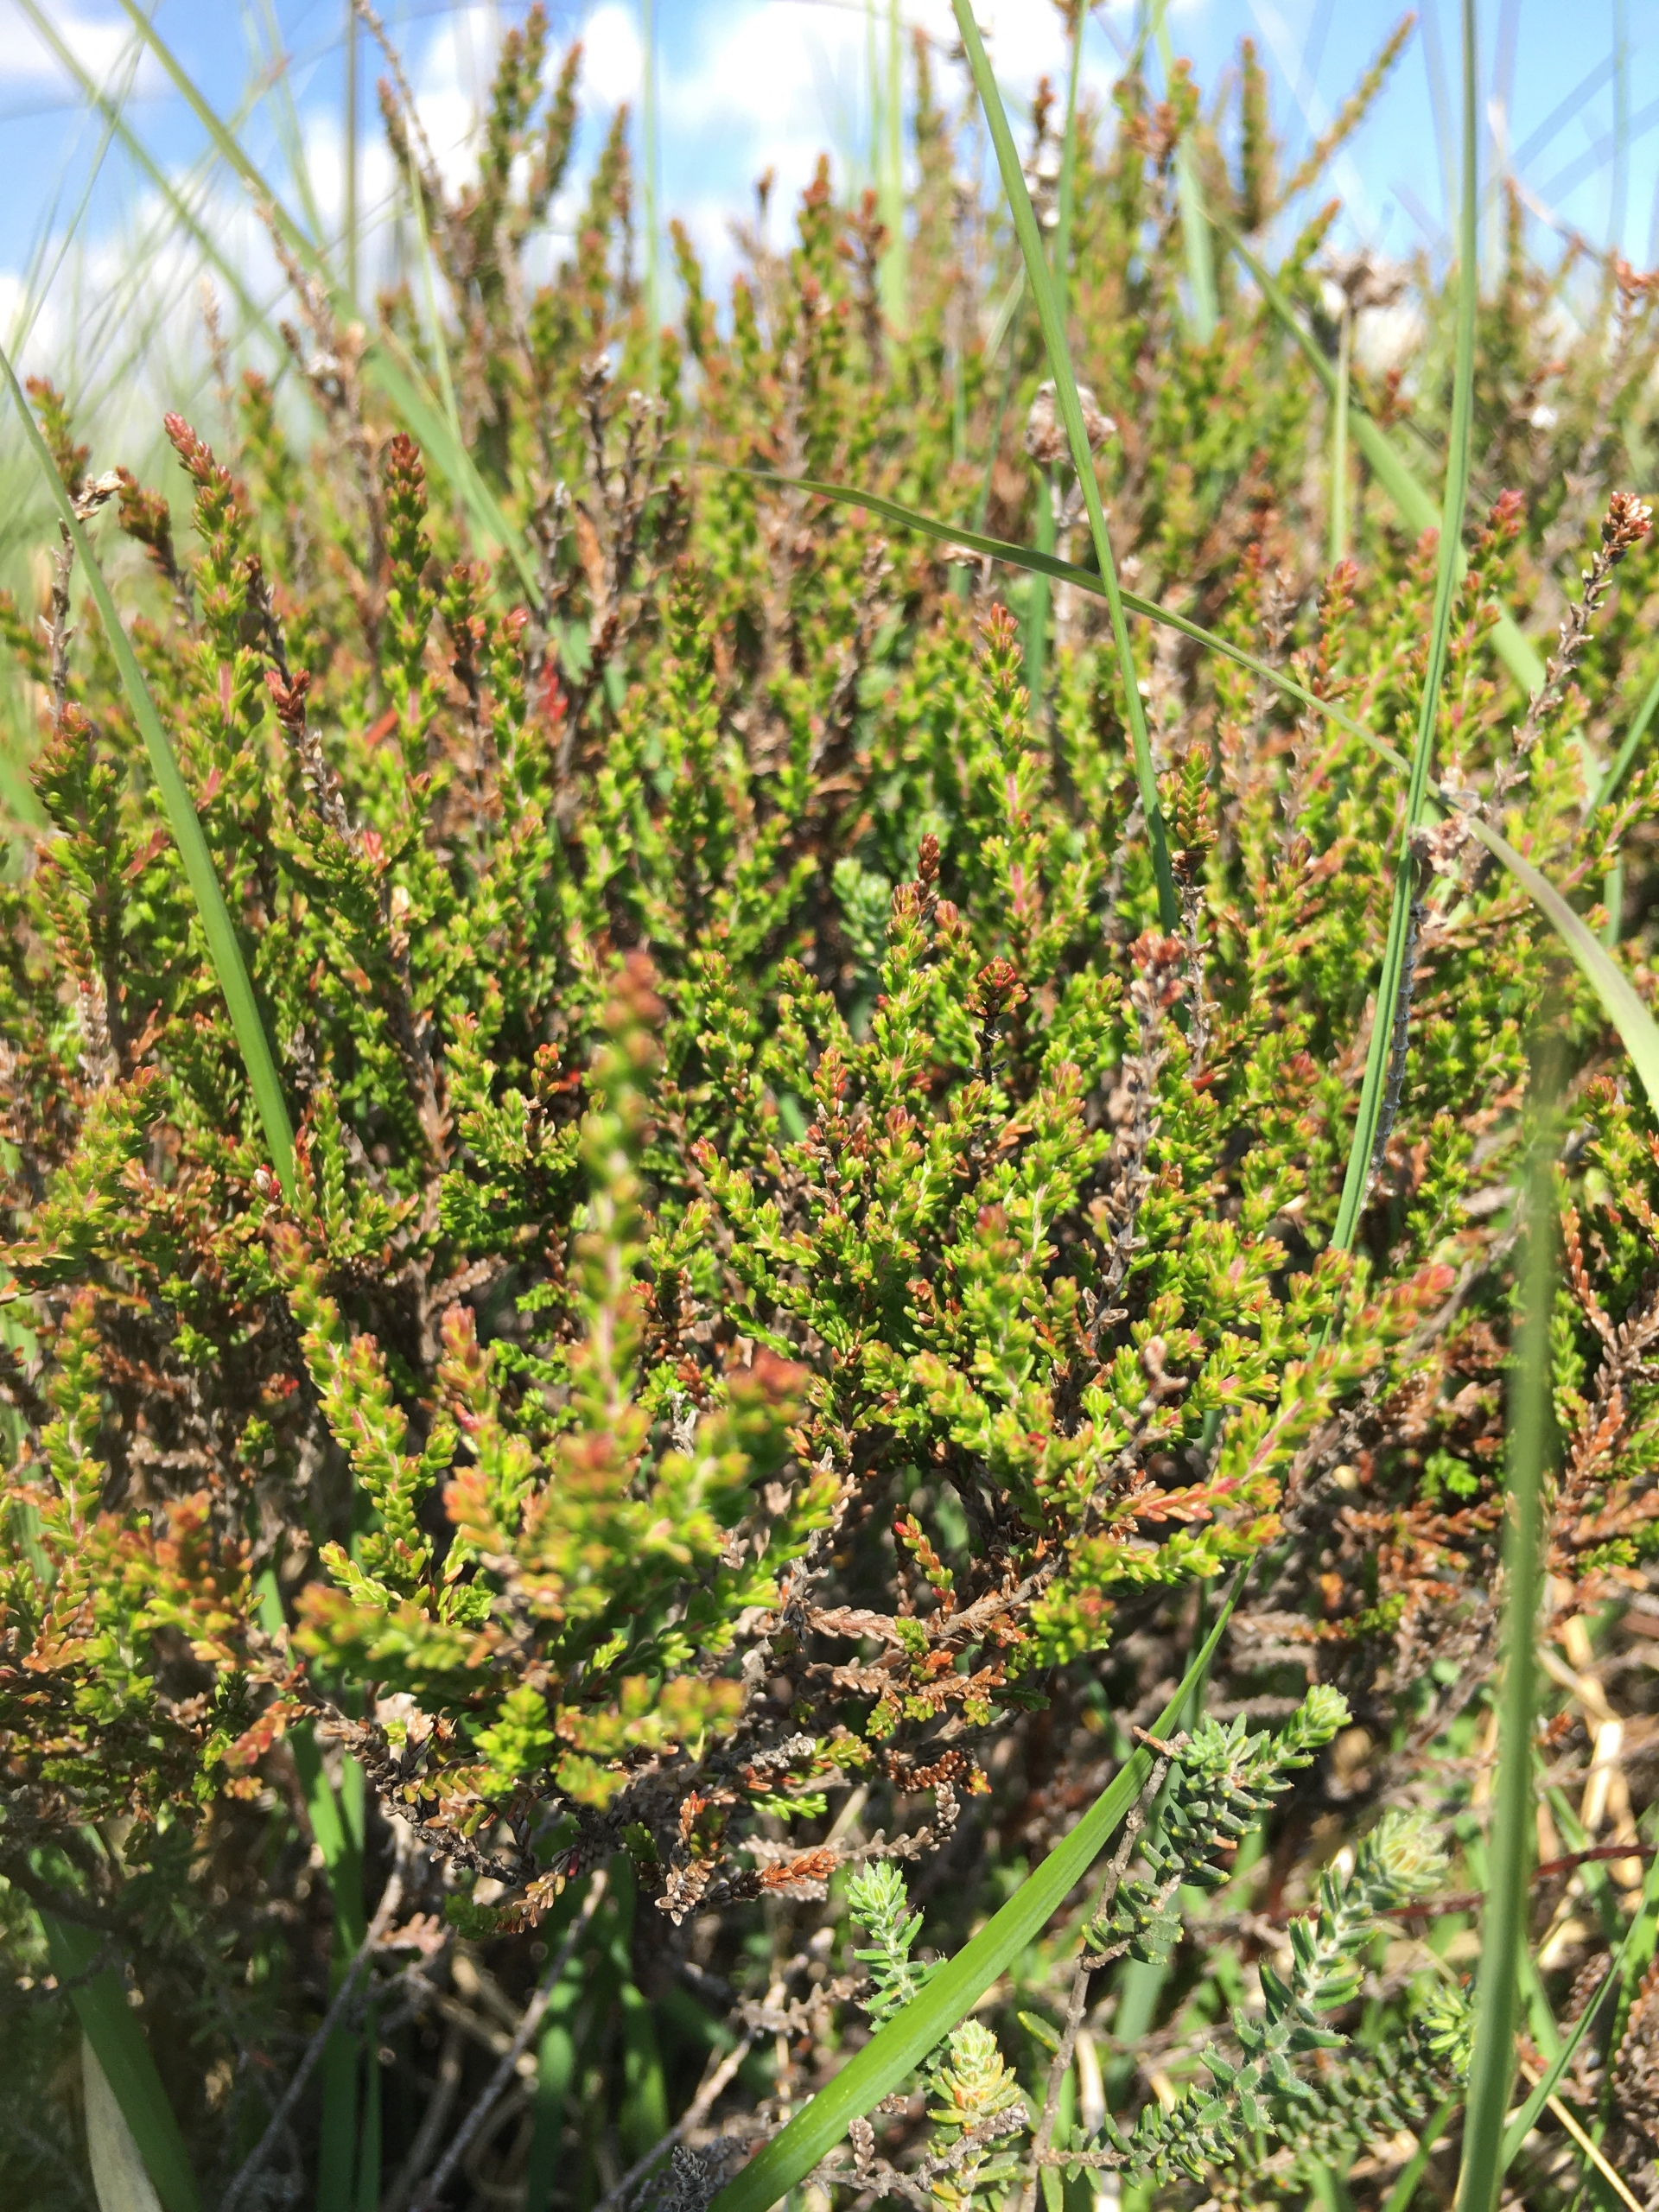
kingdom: Plantae
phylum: Tracheophyta
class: Magnoliopsida
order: Ericales
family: Ericaceae
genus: Calluna
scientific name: Calluna vulgaris
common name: Hedelyng
